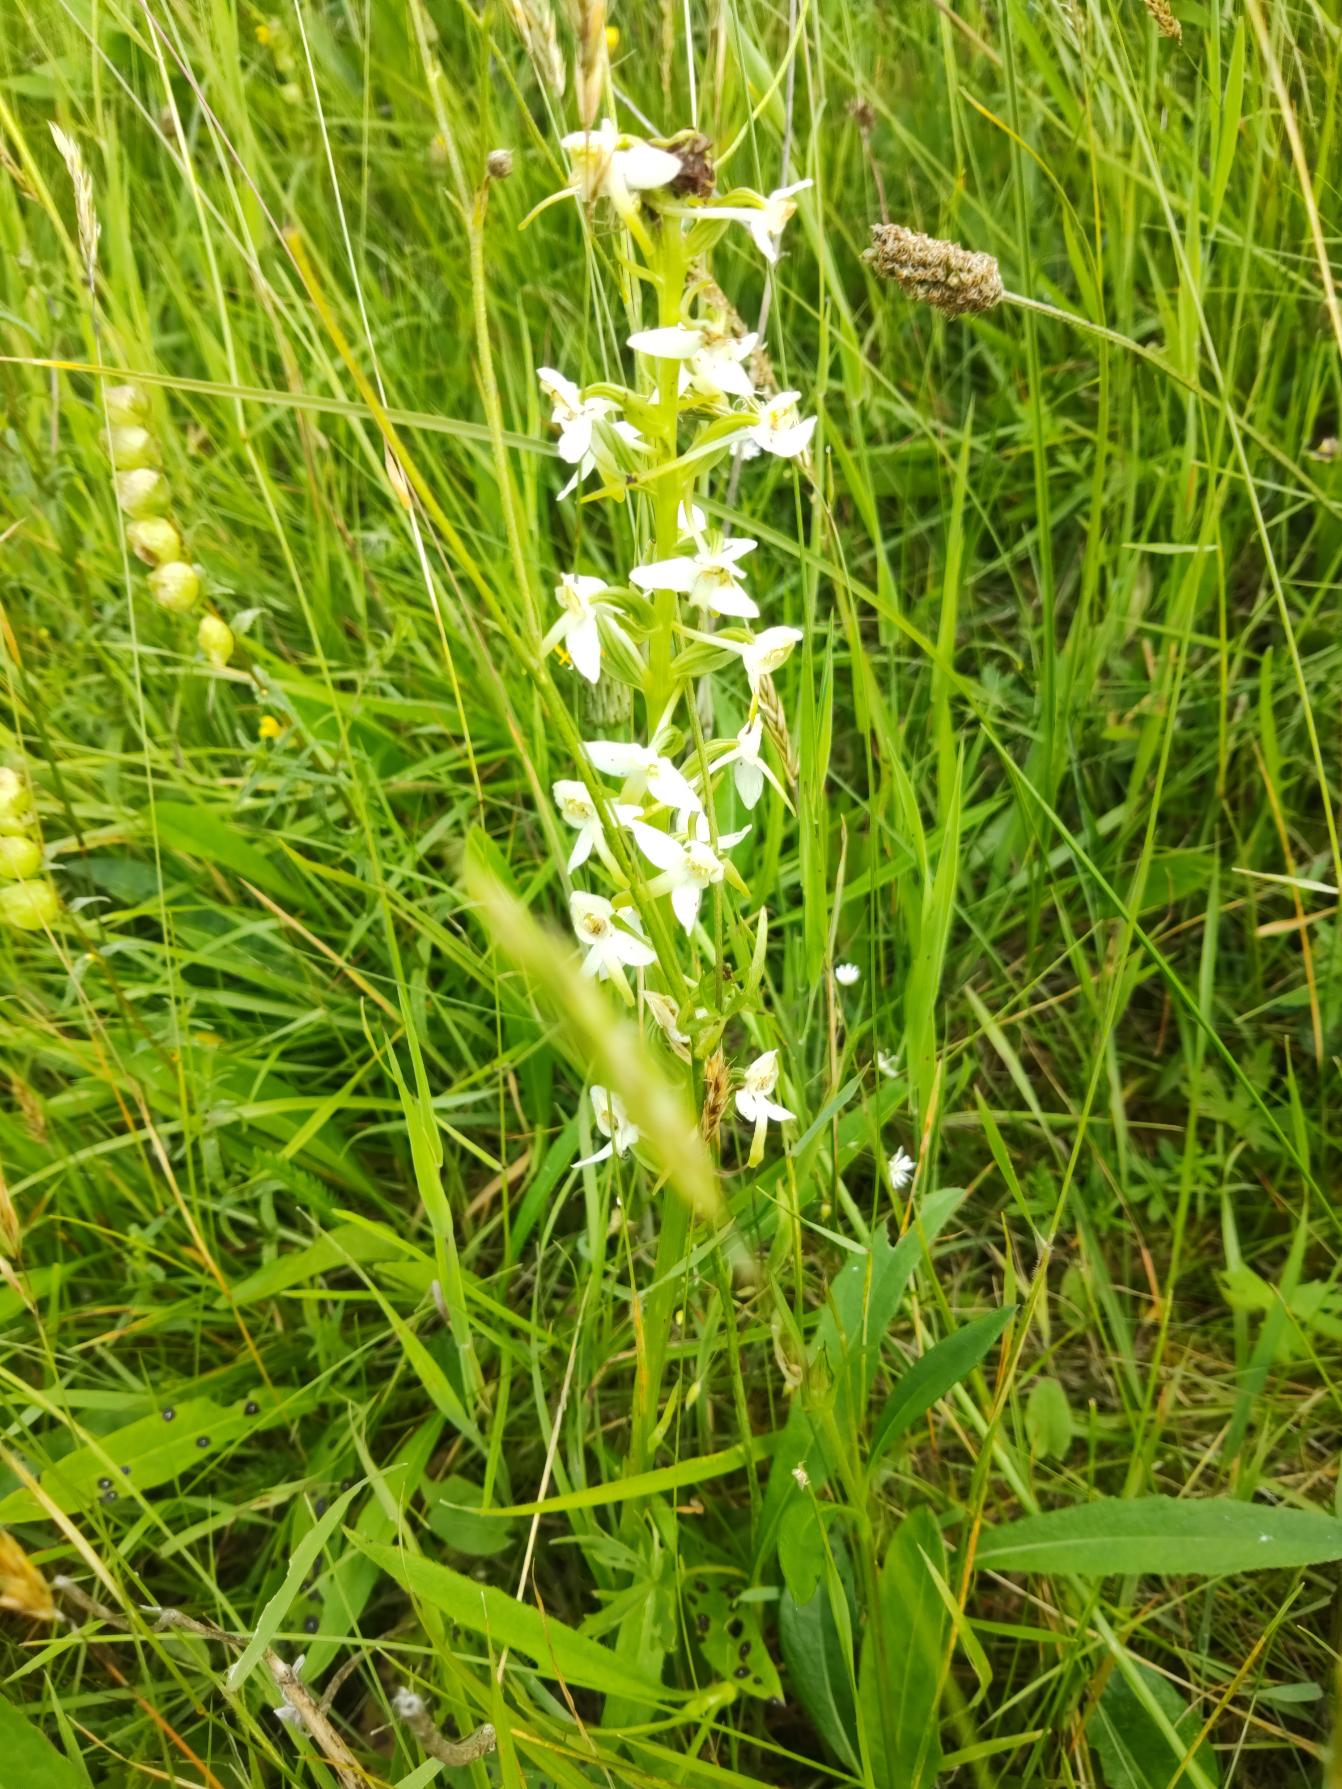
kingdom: Plantae
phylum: Tracheophyta
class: Liliopsida
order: Asparagales
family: Orchidaceae
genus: Platanthera
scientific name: Platanthera bifolia
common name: Bakke-gøgelilje
